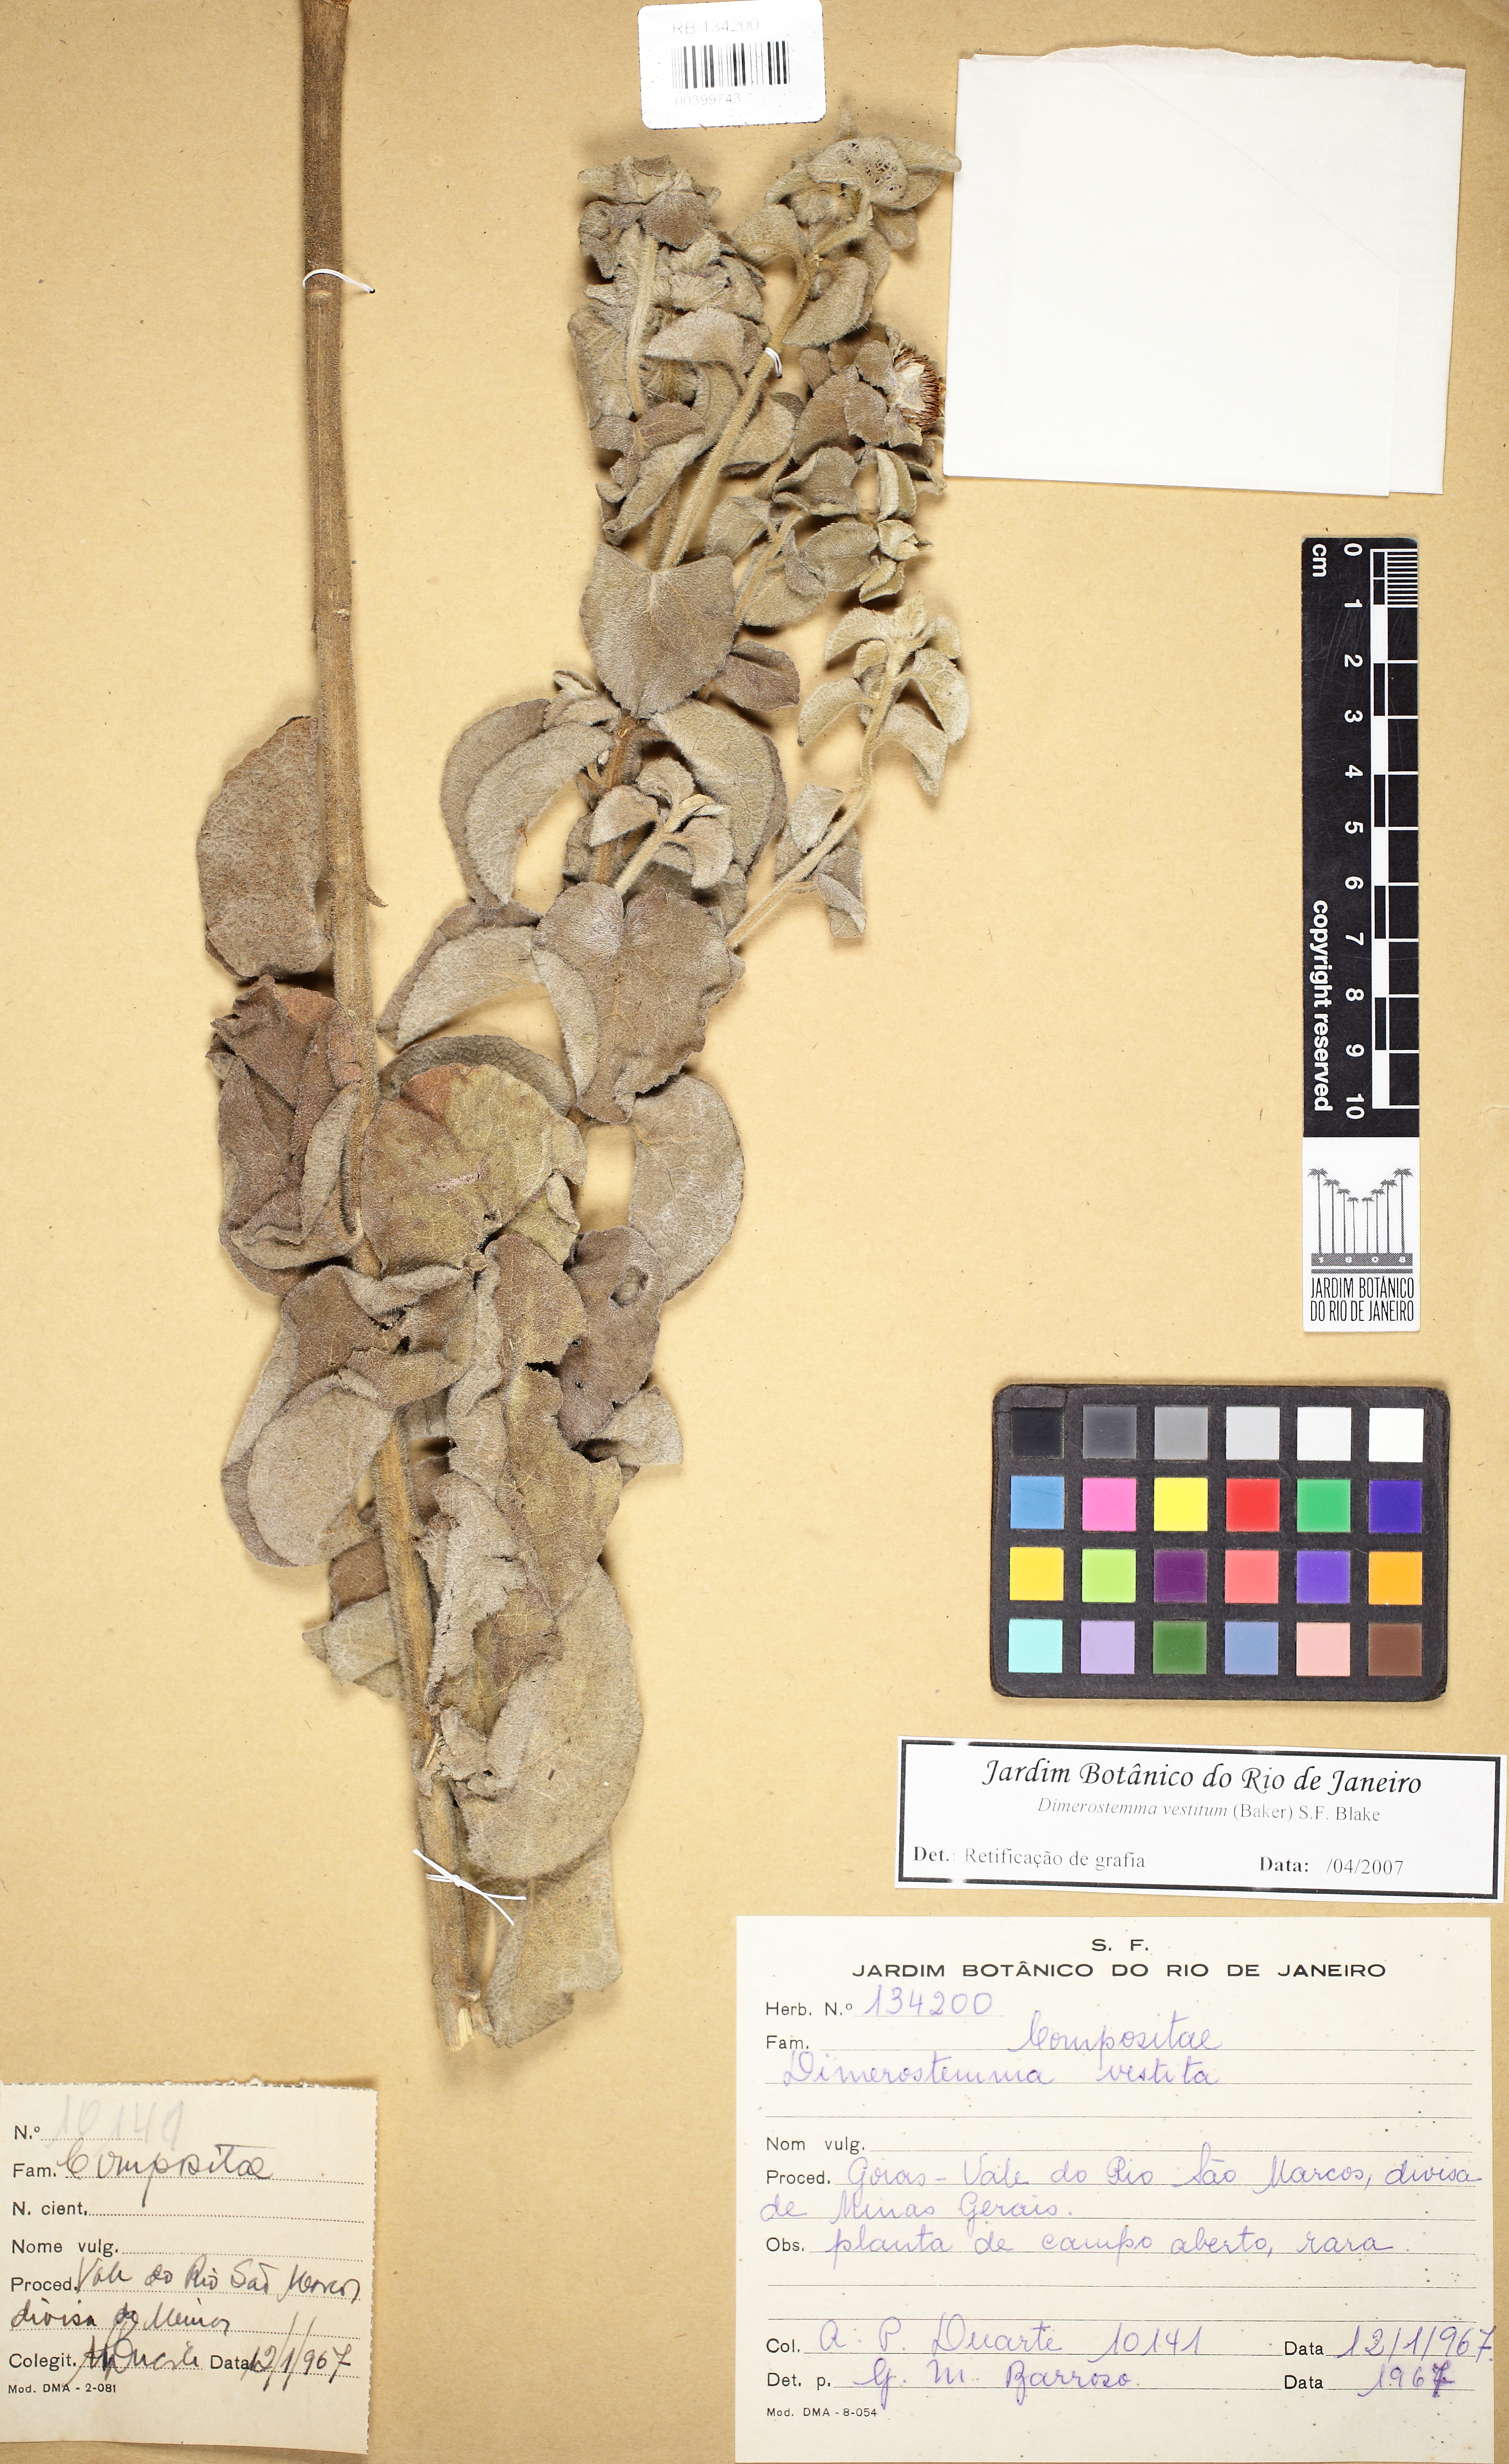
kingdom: Plantae
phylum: Tracheophyta
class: Magnoliopsida
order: Asterales
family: Asteraceae
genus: Dimerostemma
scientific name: Dimerostemma vestitum
